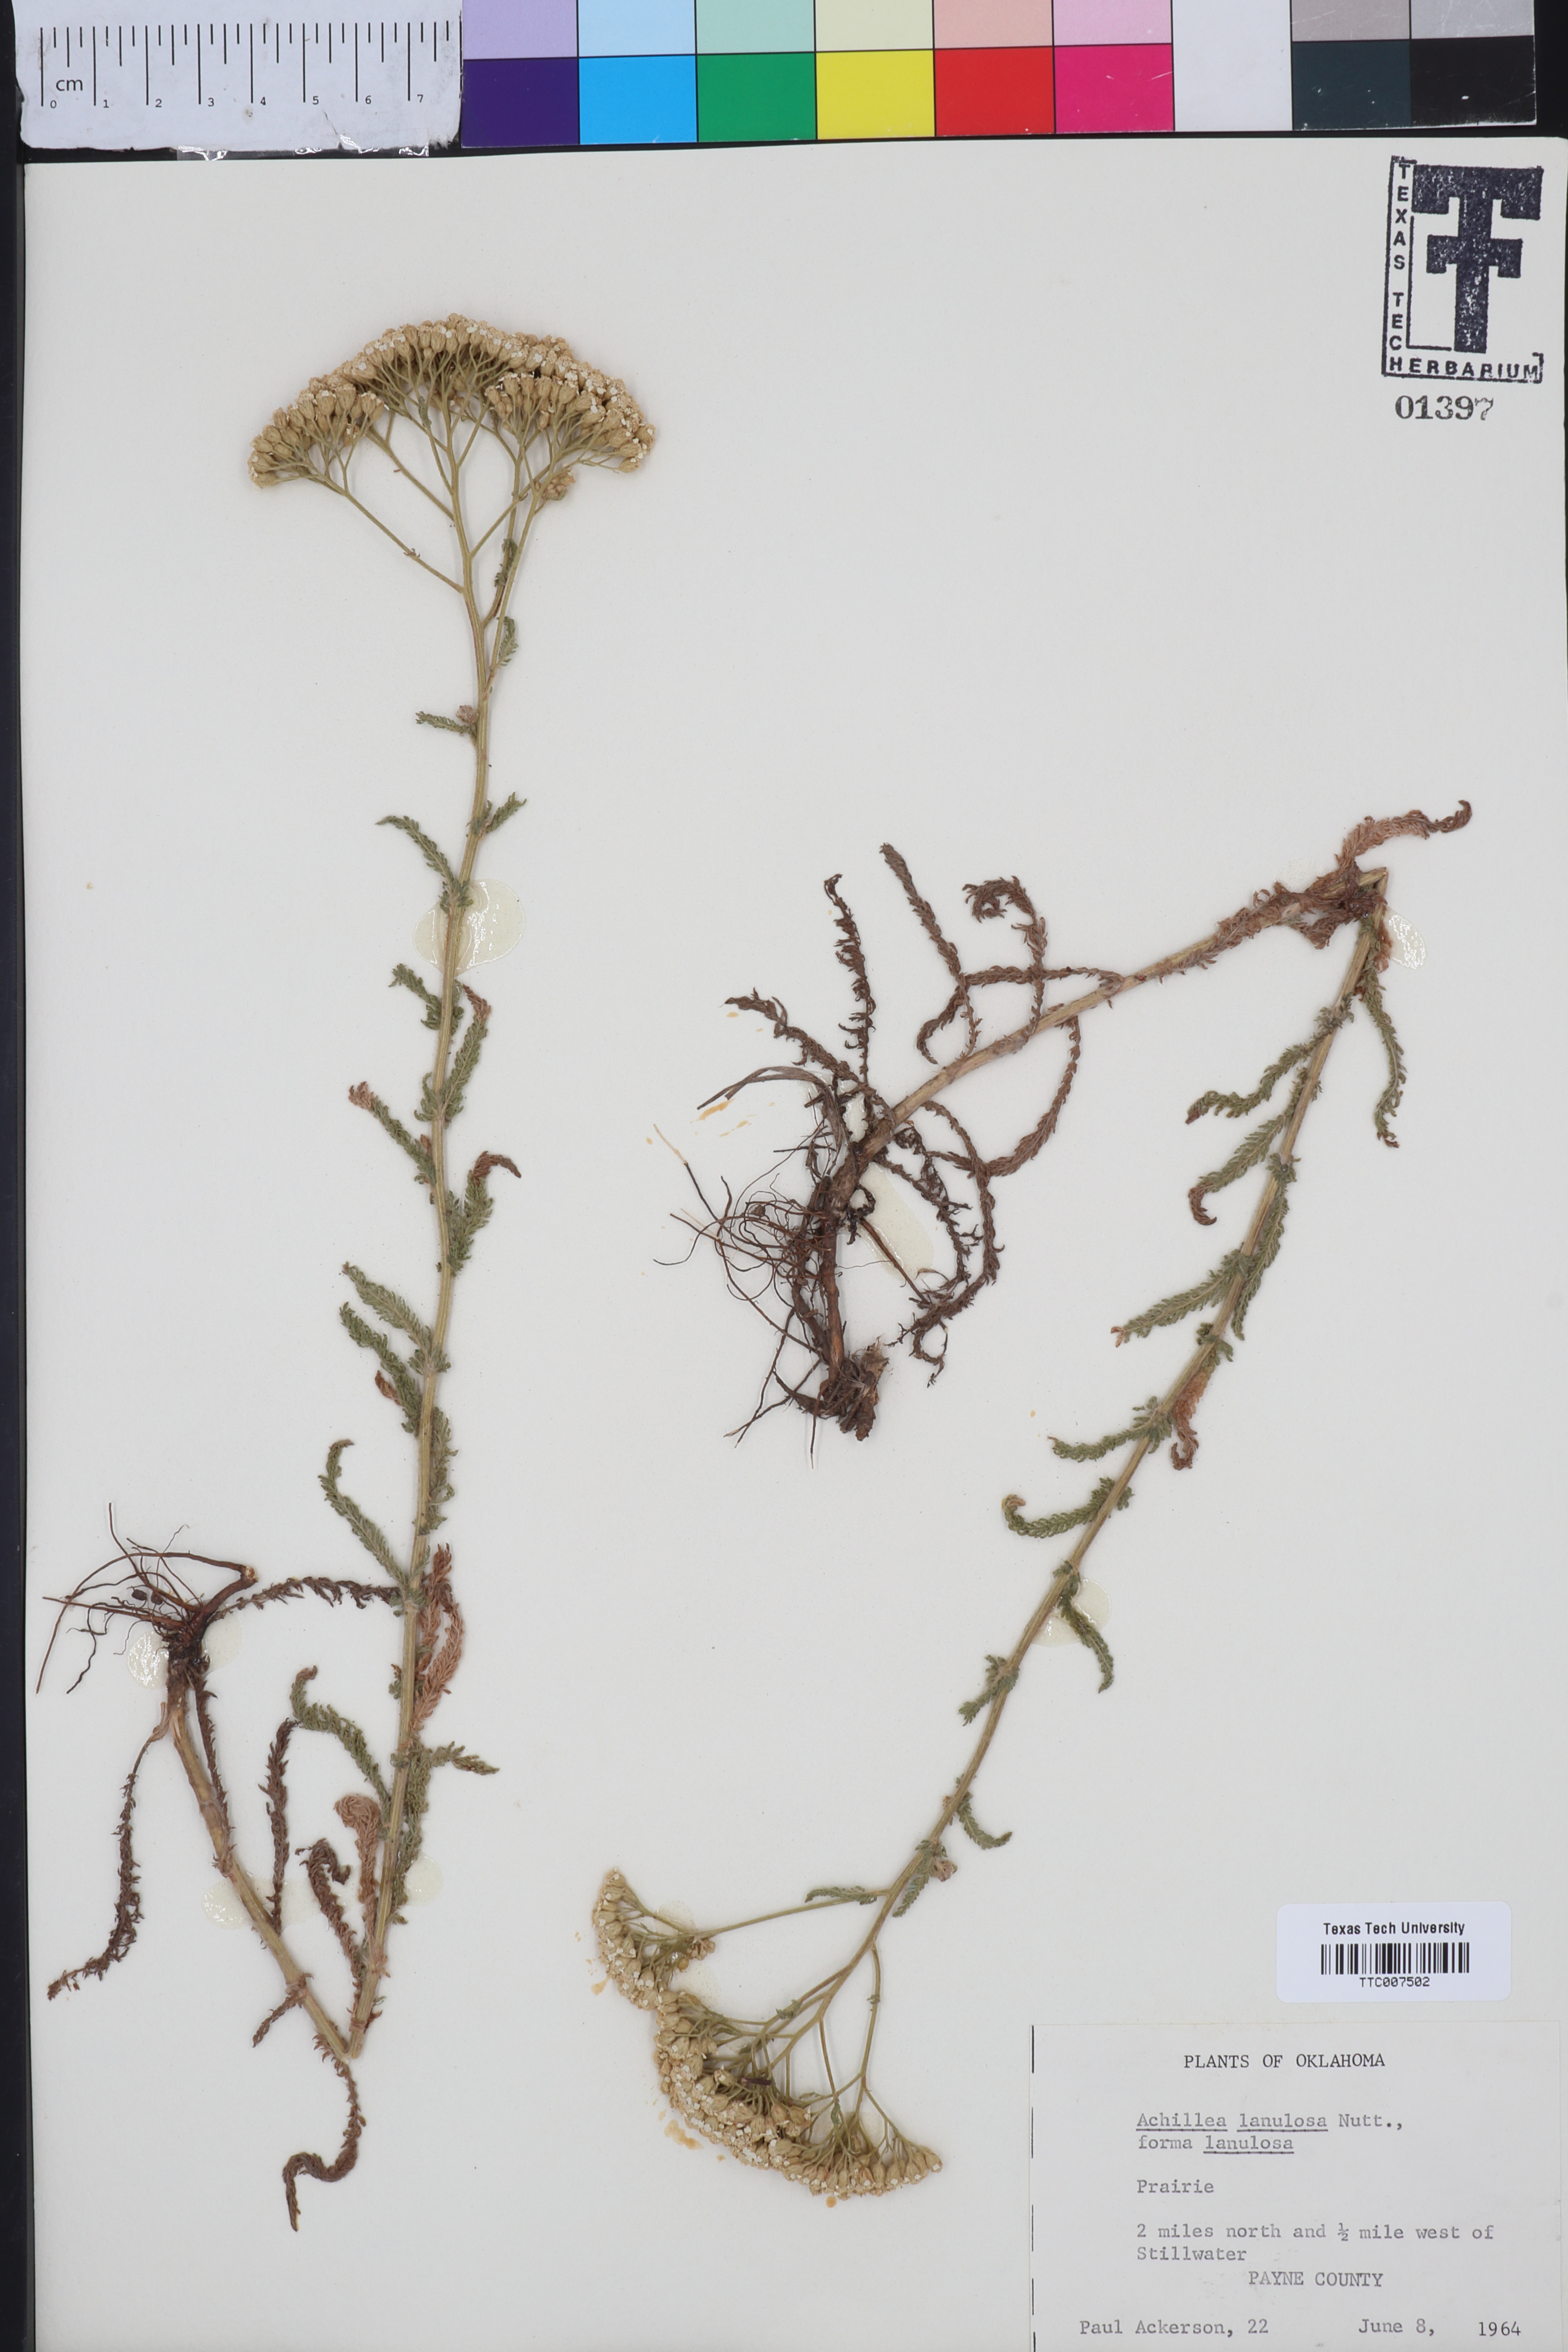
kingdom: Plantae
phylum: Tracheophyta
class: Magnoliopsida
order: Asterales
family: Asteraceae
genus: Achillea
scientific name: Achillea millefolium
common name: Yarrow
